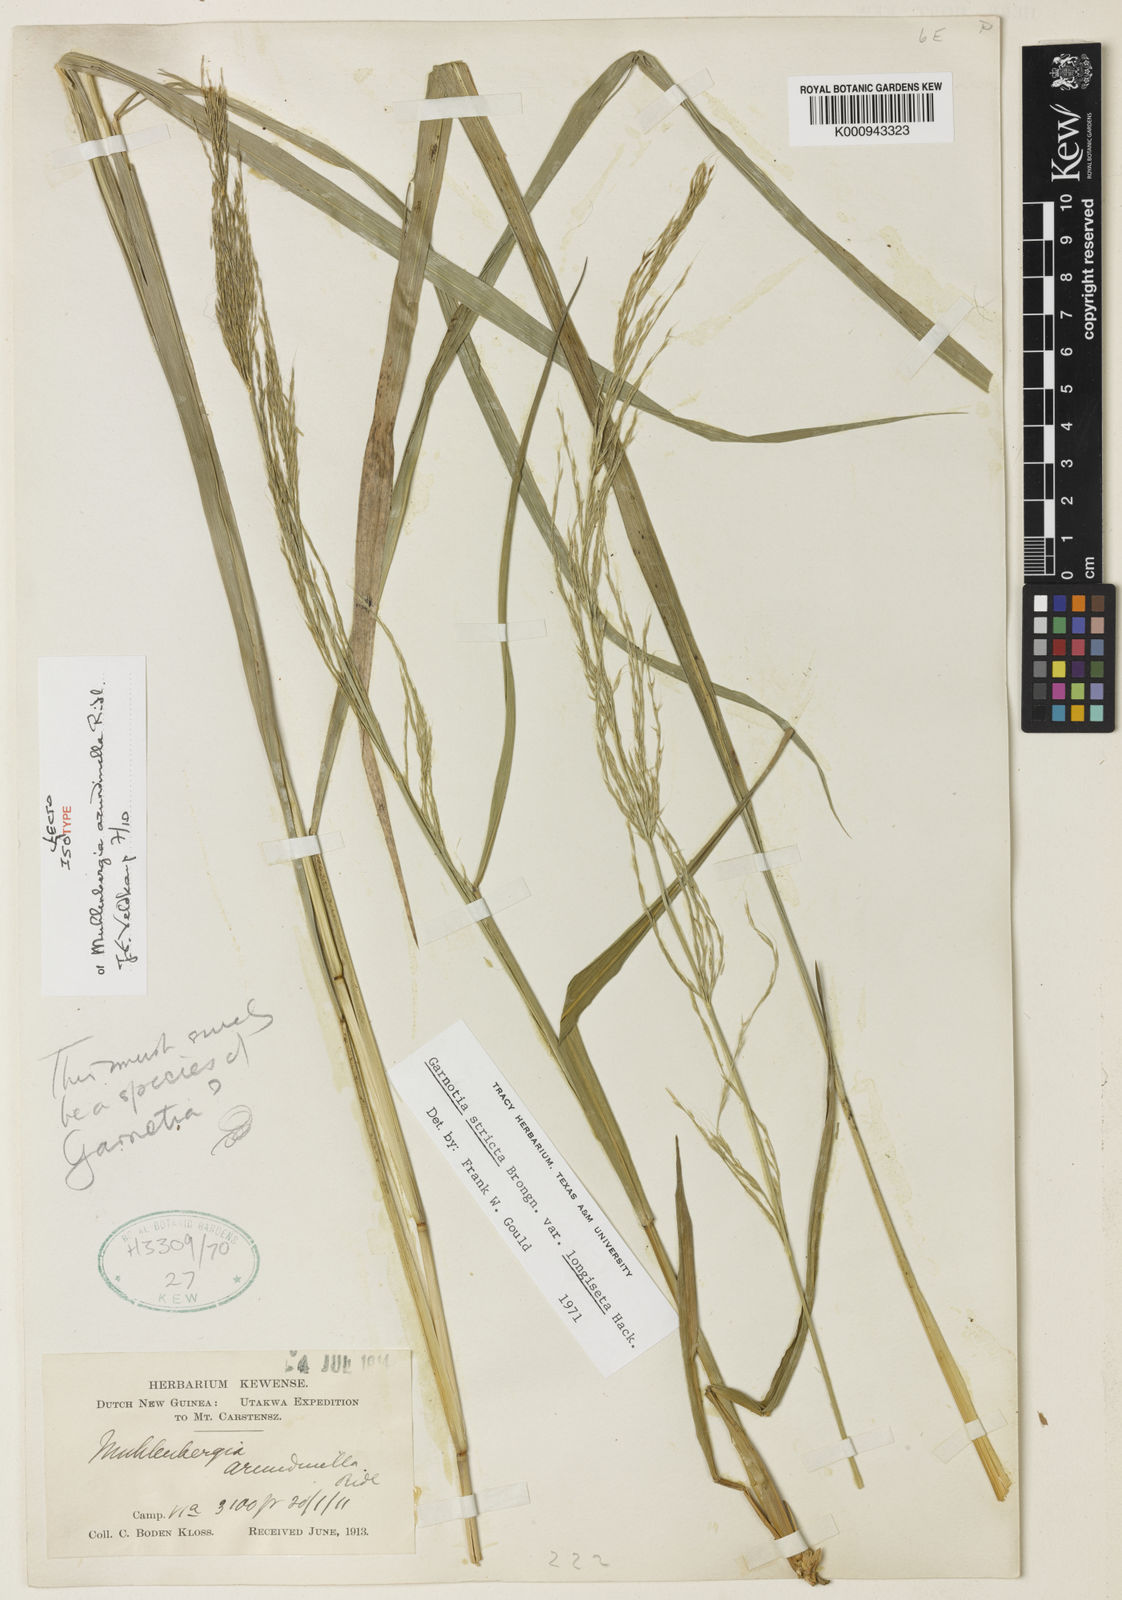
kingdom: Plantae
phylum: Tracheophyta
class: Liliopsida
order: Poales
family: Poaceae
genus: Garnotia
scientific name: Garnotia stricta
